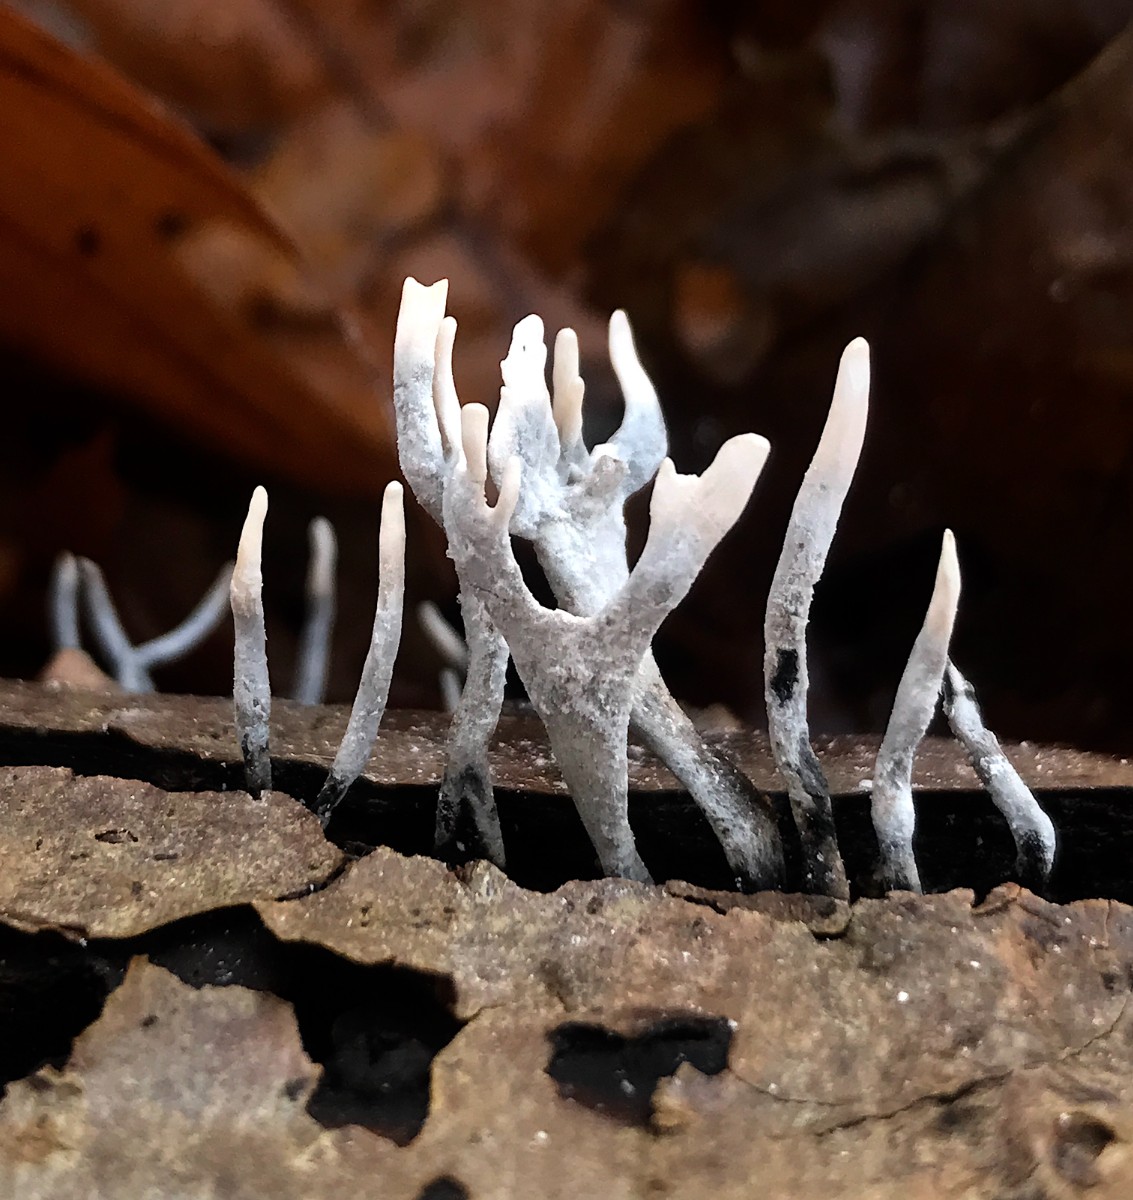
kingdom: Fungi
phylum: Ascomycota
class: Sordariomycetes
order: Xylariales
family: Xylariaceae
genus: Xylaria
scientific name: Xylaria hypoxylon
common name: grenet stødsvamp
